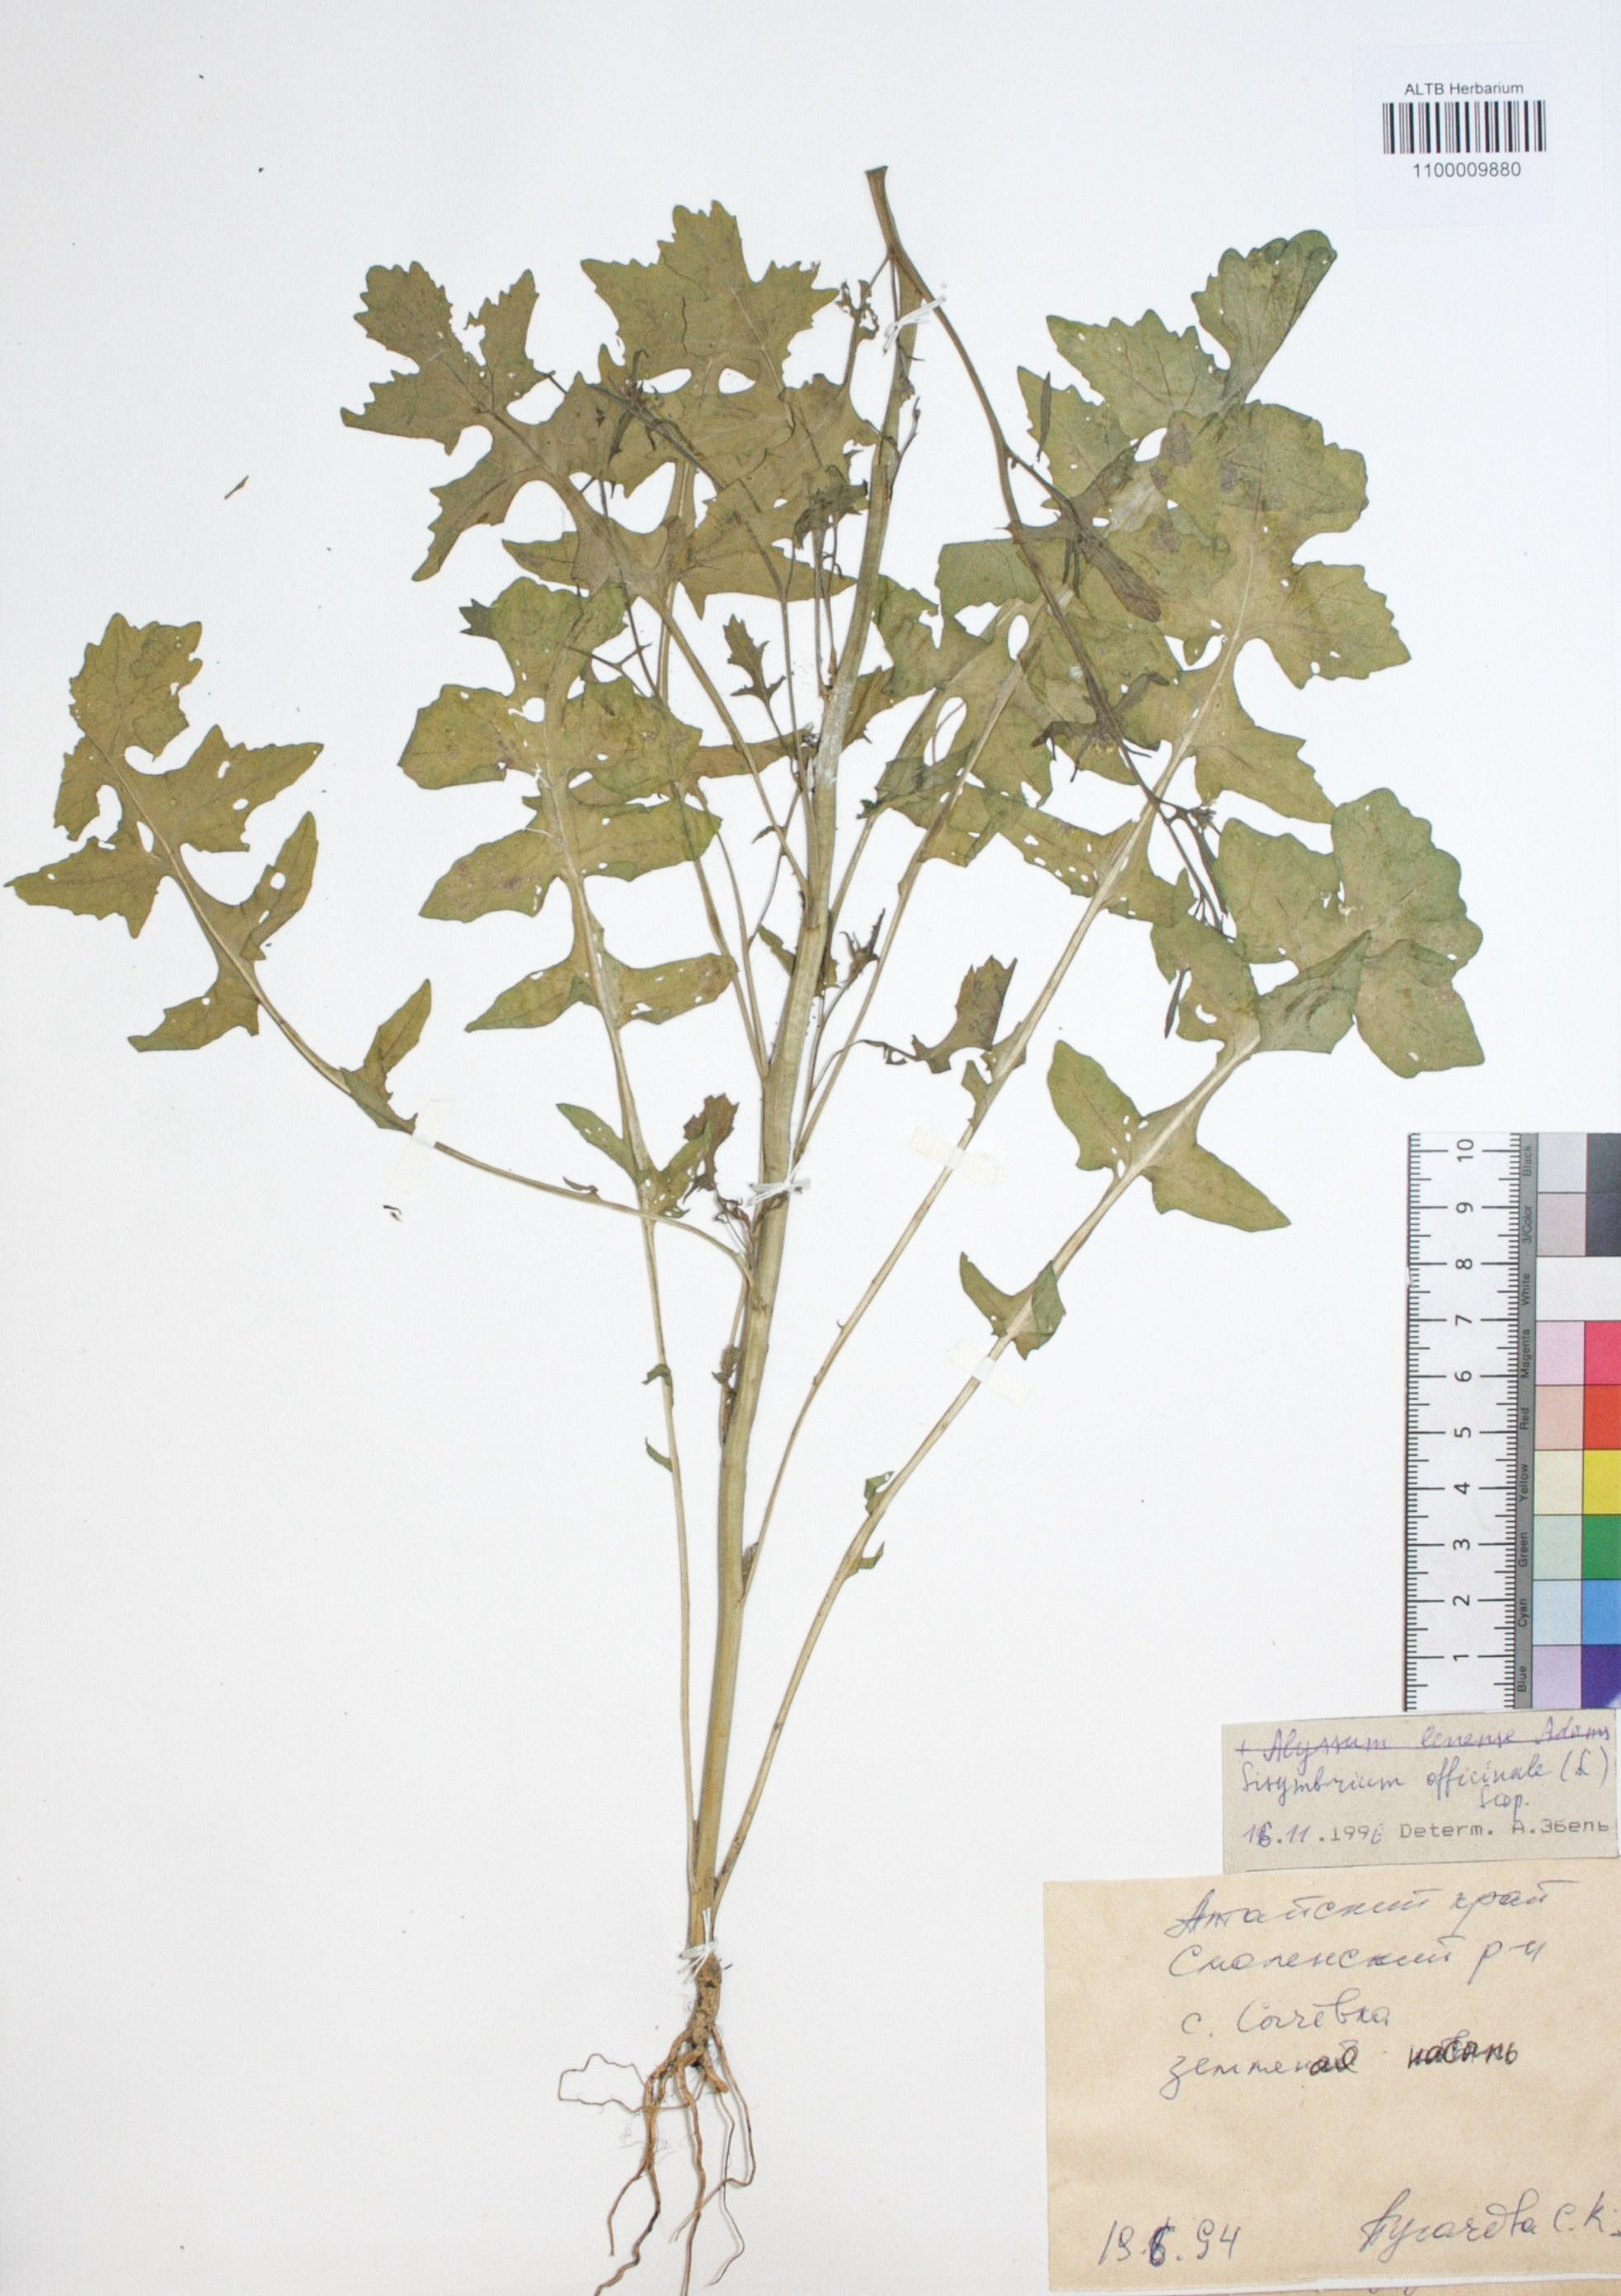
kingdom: Plantae
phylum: Tracheophyta
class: Magnoliopsida
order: Brassicales
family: Brassicaceae
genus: Sisymbrium
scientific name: Sisymbrium officinale
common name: Hedge mustard
